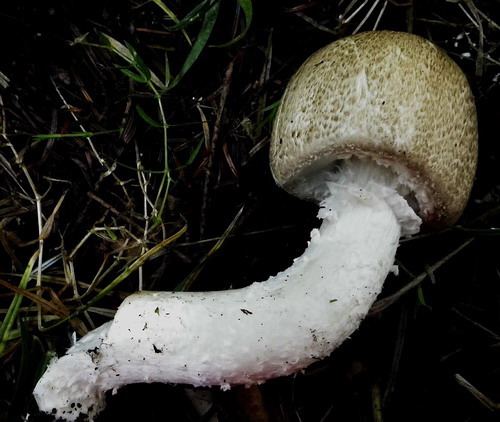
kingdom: Fungi
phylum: Basidiomycota
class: Agaricomycetes
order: Agaricales
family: Agaricaceae
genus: Agaricus
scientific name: Agaricus augustus
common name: prægtig champignon
